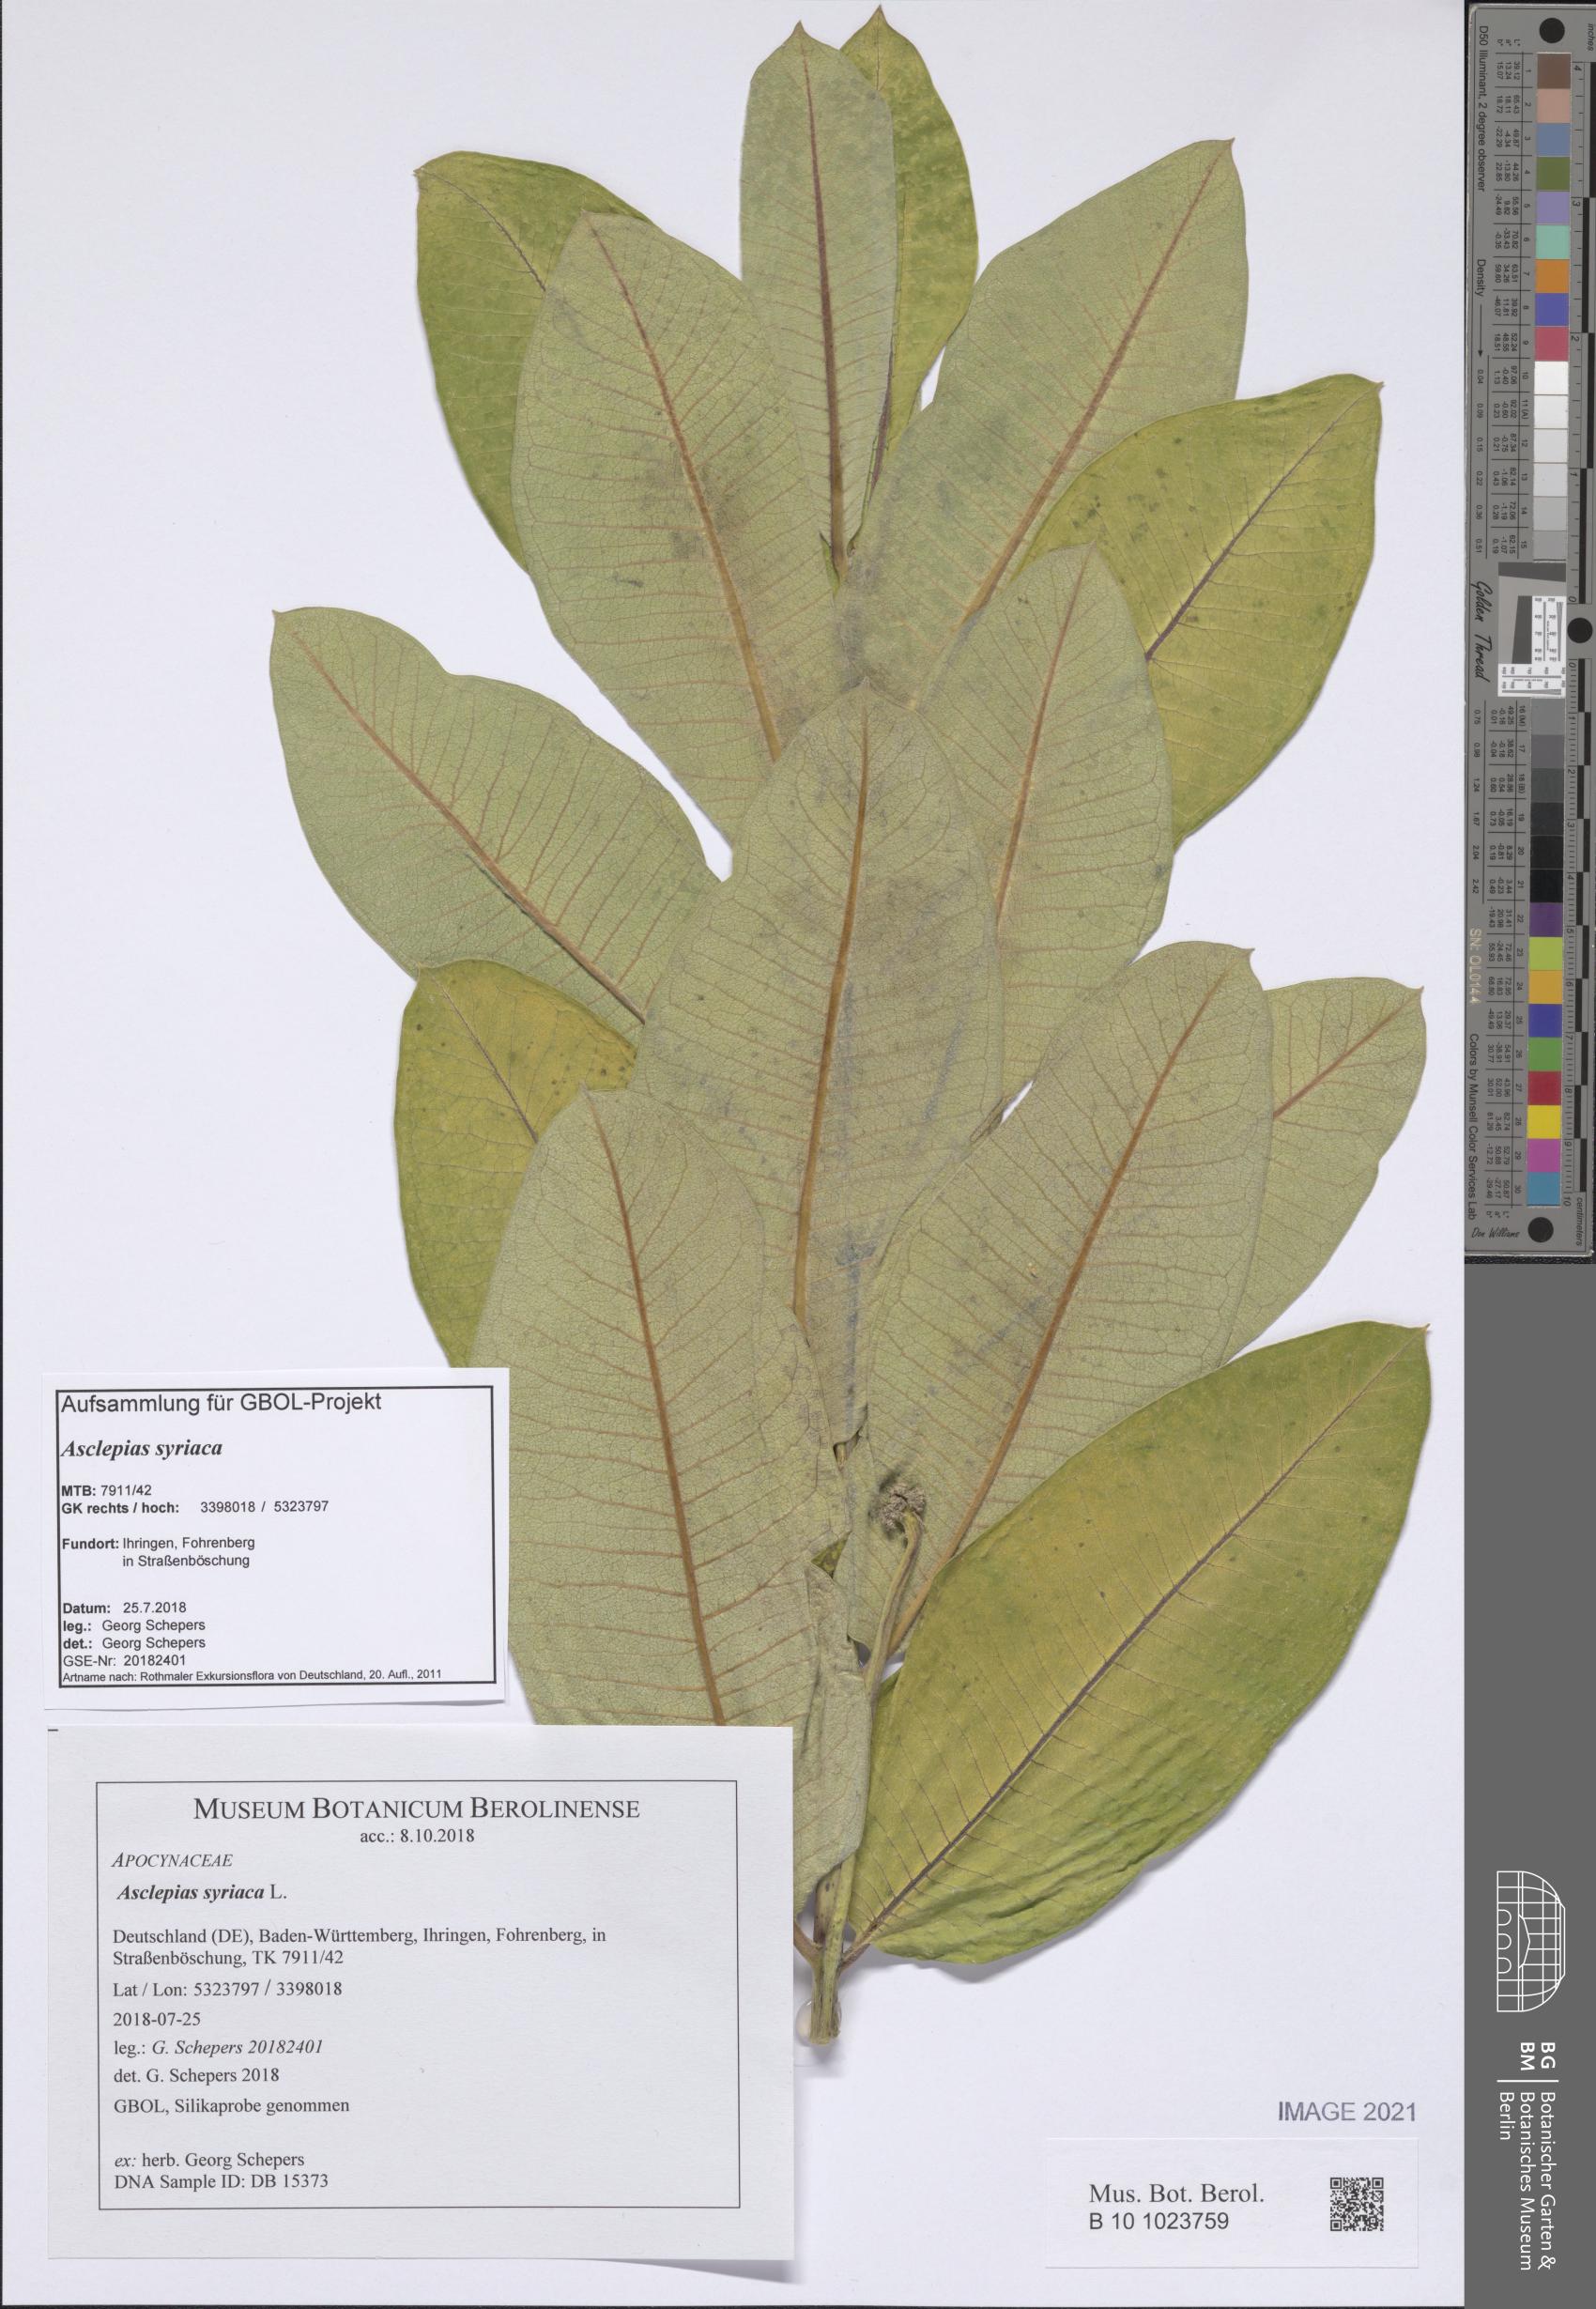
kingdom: Plantae
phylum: Tracheophyta
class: Magnoliopsida
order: Gentianales
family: Apocynaceae
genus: Asclepias
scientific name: Asclepias syriaca
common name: Common milkweed
